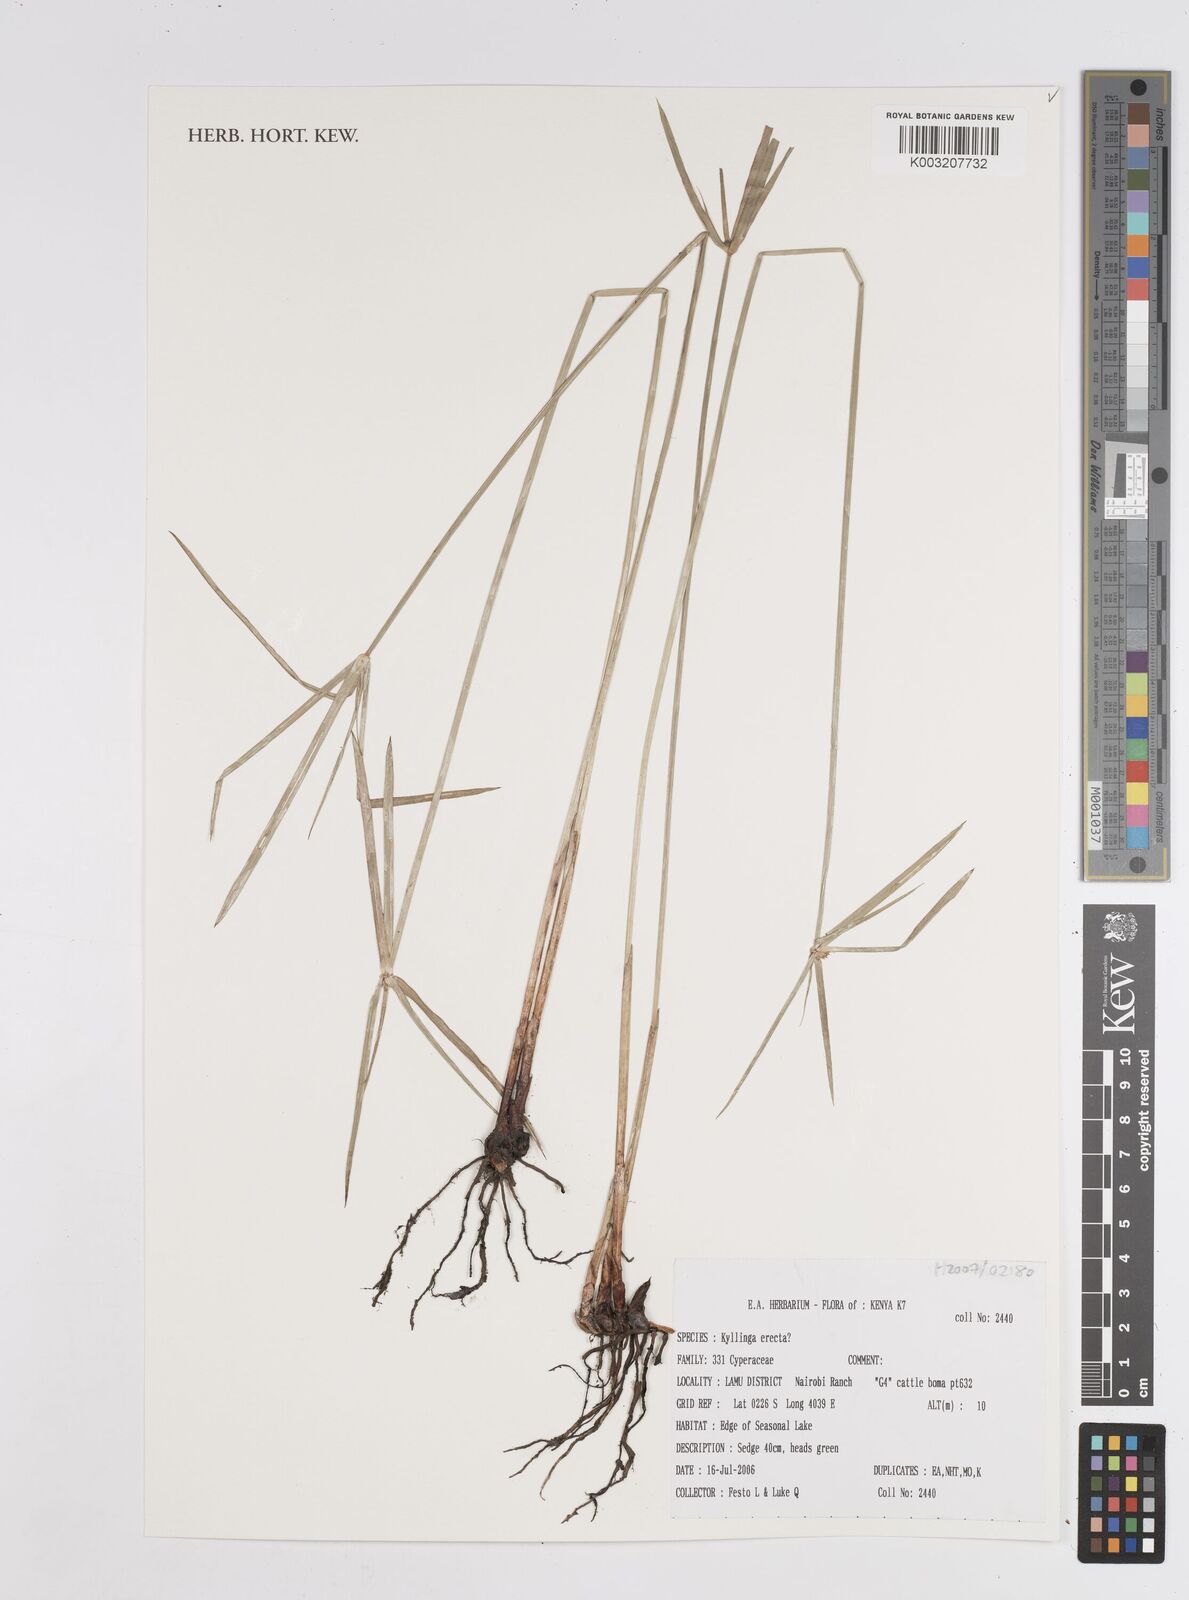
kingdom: Plantae
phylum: Tracheophyta
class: Liliopsida
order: Poales
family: Cyperaceae
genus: Cyperus
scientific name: Cyperus erectus
